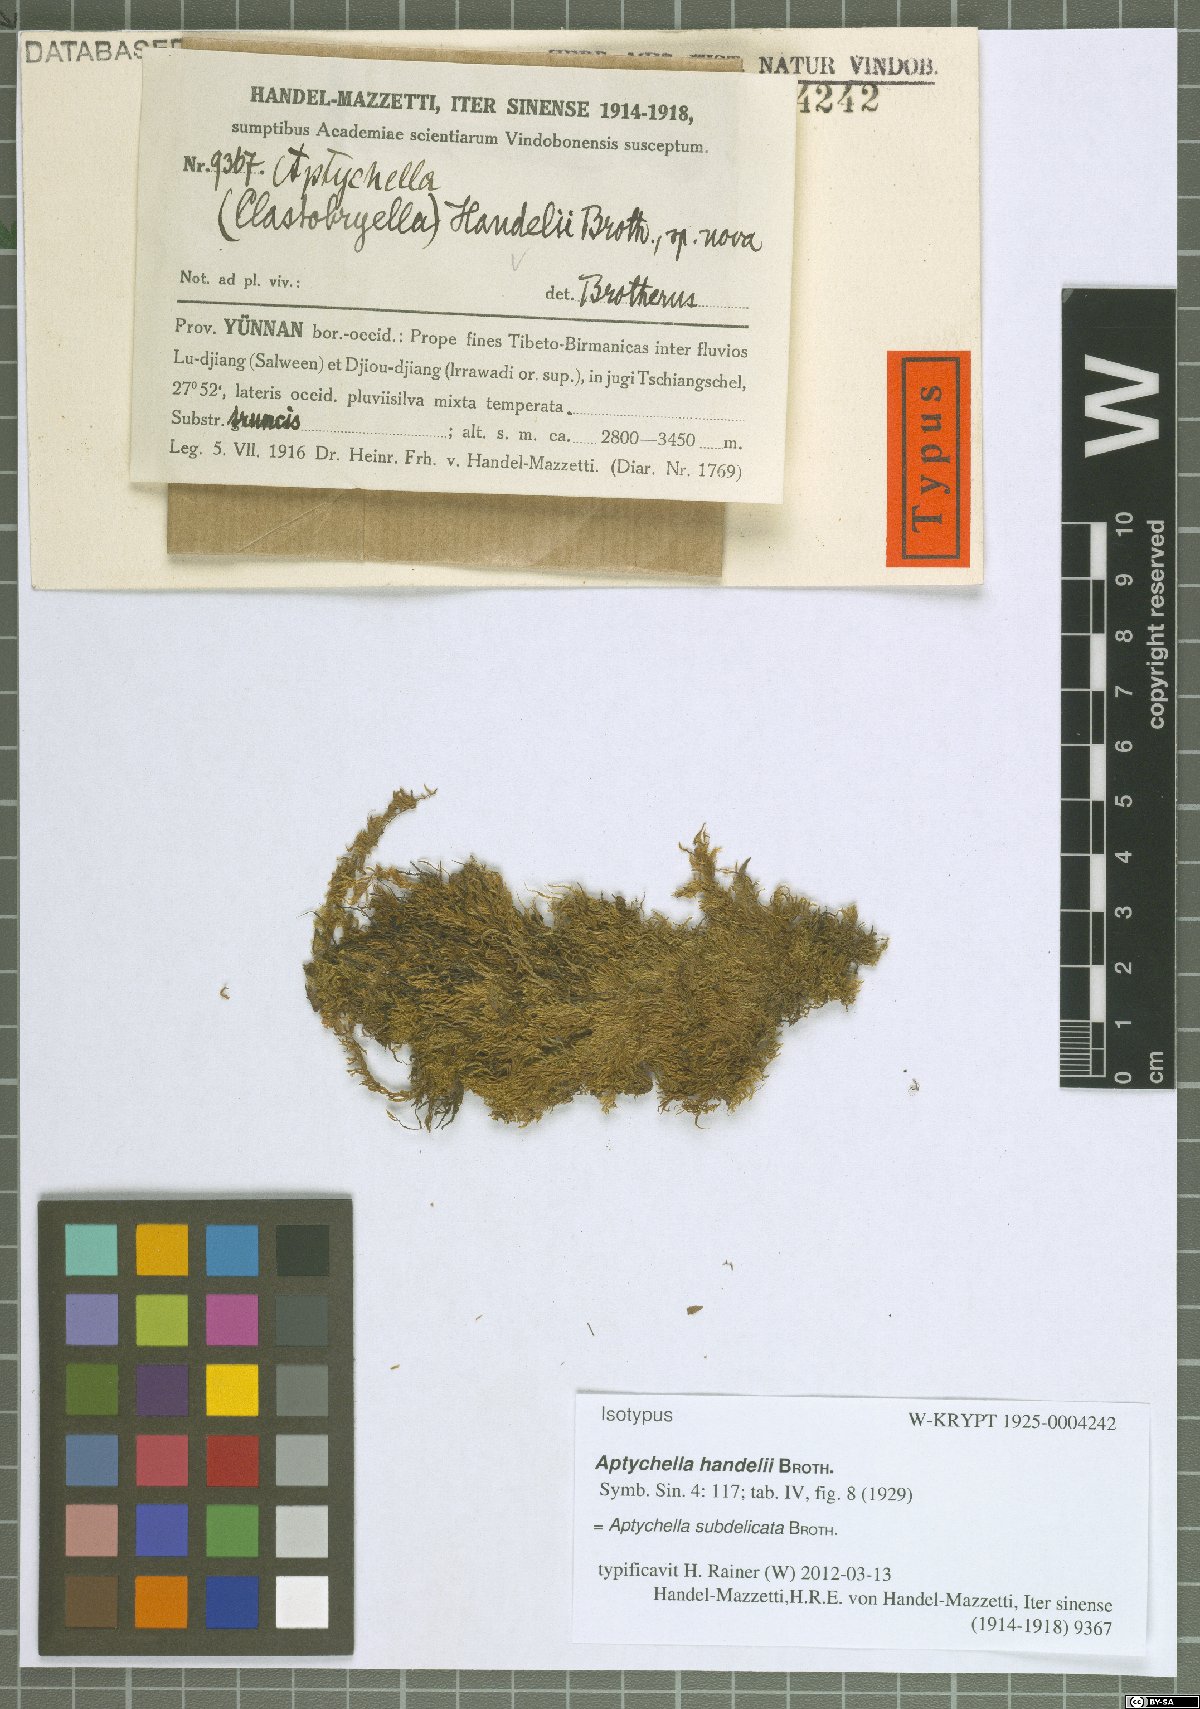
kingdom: Plantae
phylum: Bryophyta
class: Bryopsida
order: Hypnales
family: Pylaisiadelphaceae
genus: Aptychella
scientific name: Aptychella planula
